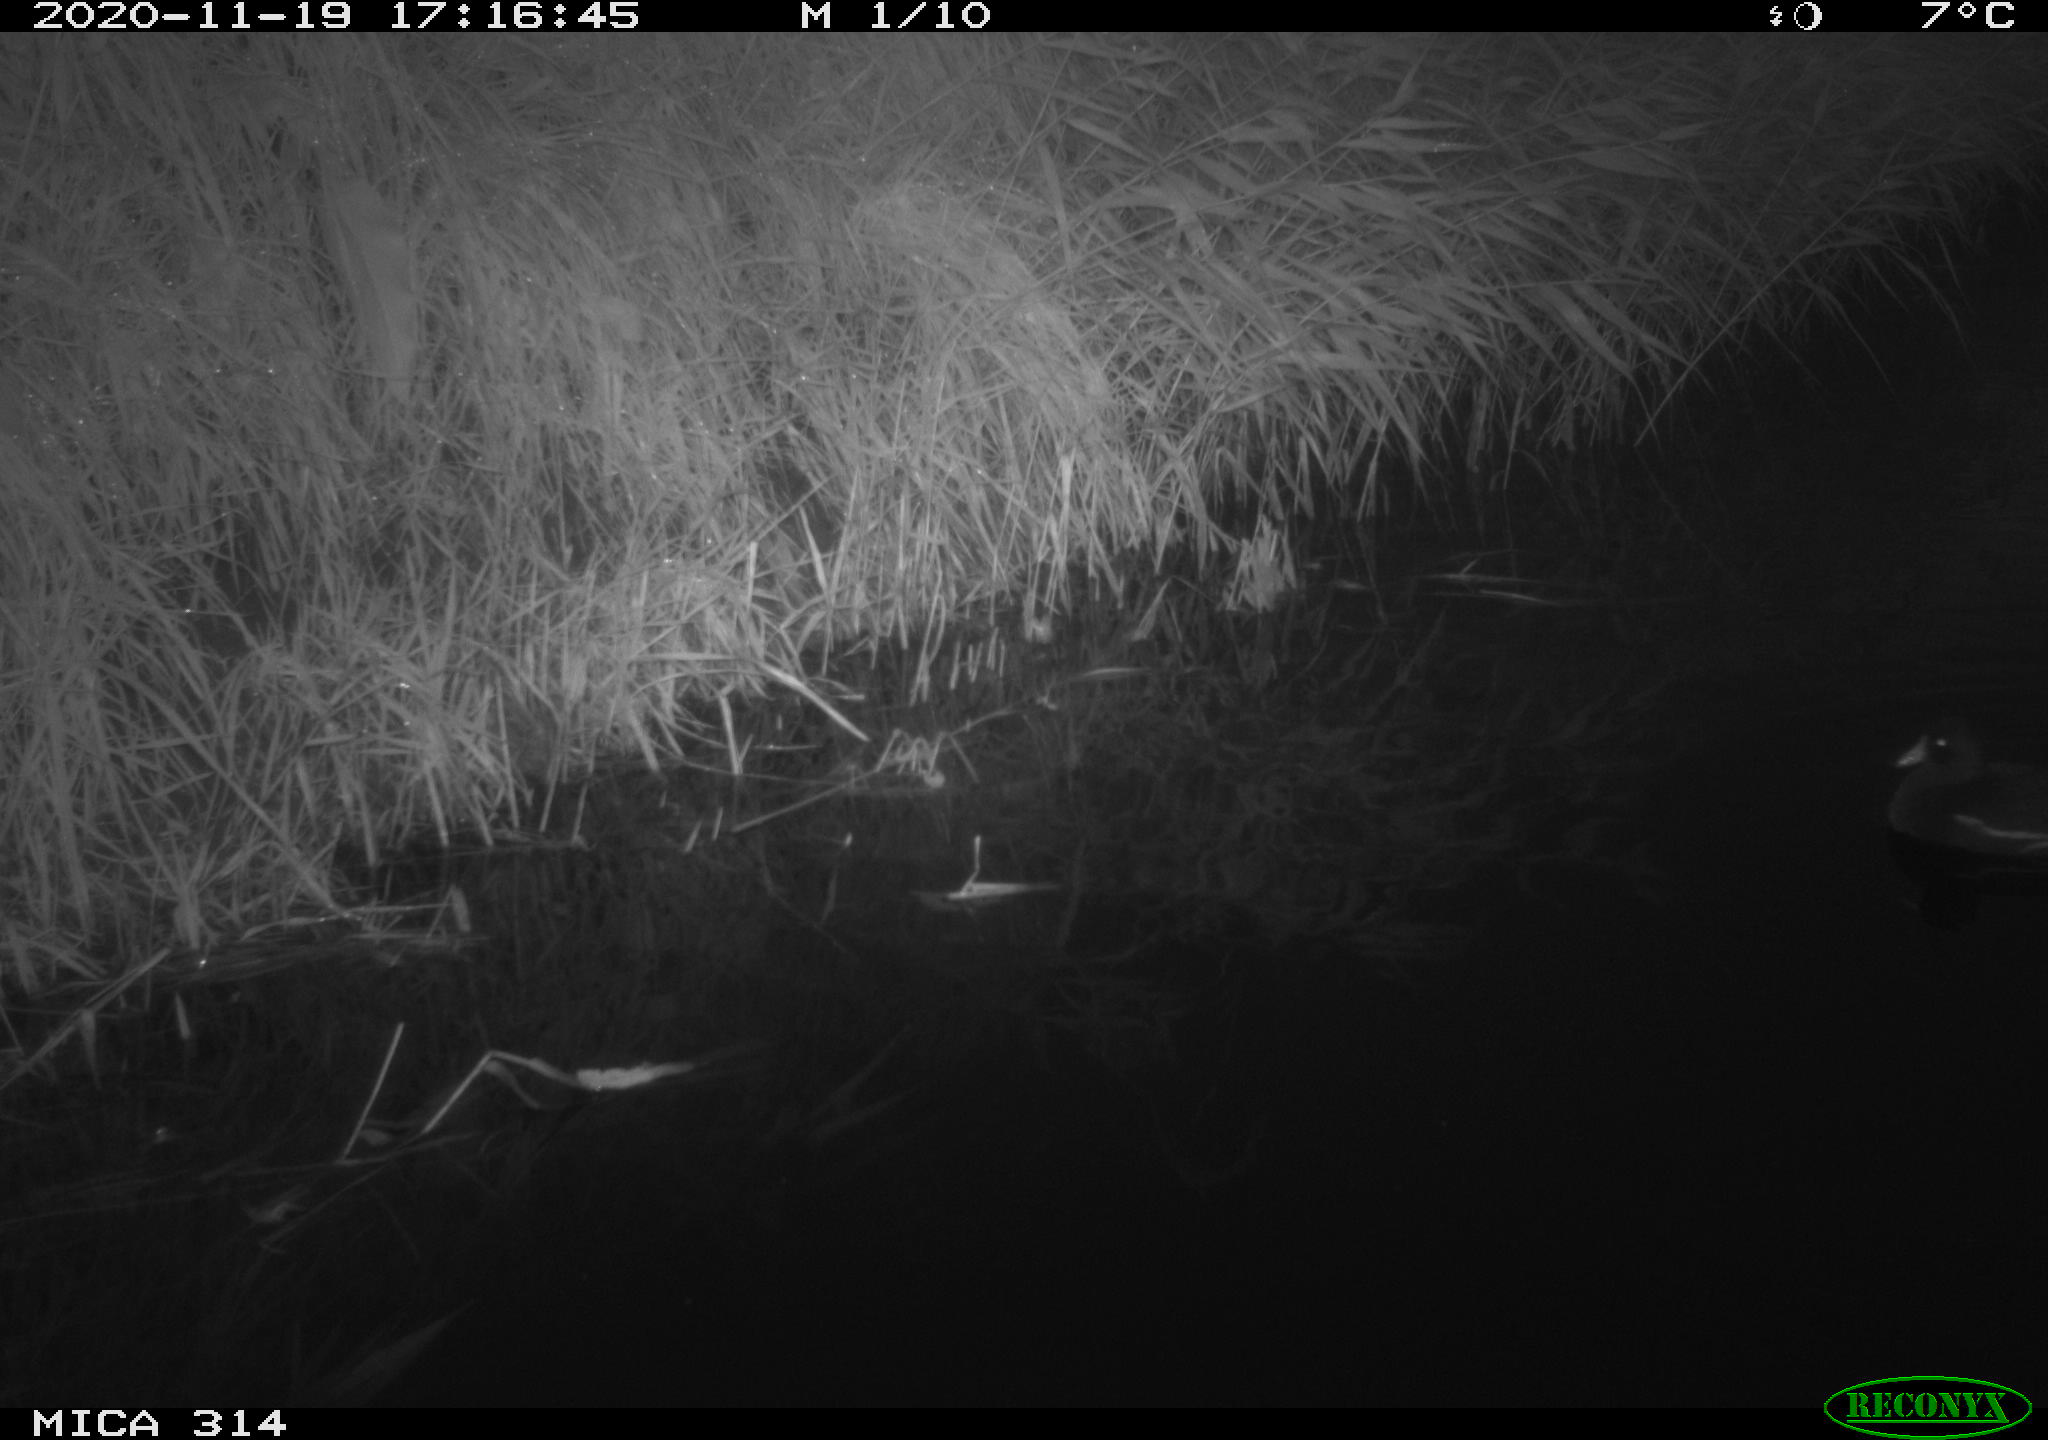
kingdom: Animalia
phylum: Chordata
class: Aves
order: Gruiformes
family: Rallidae
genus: Gallinula
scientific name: Gallinula chloropus
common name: Common moorhen
